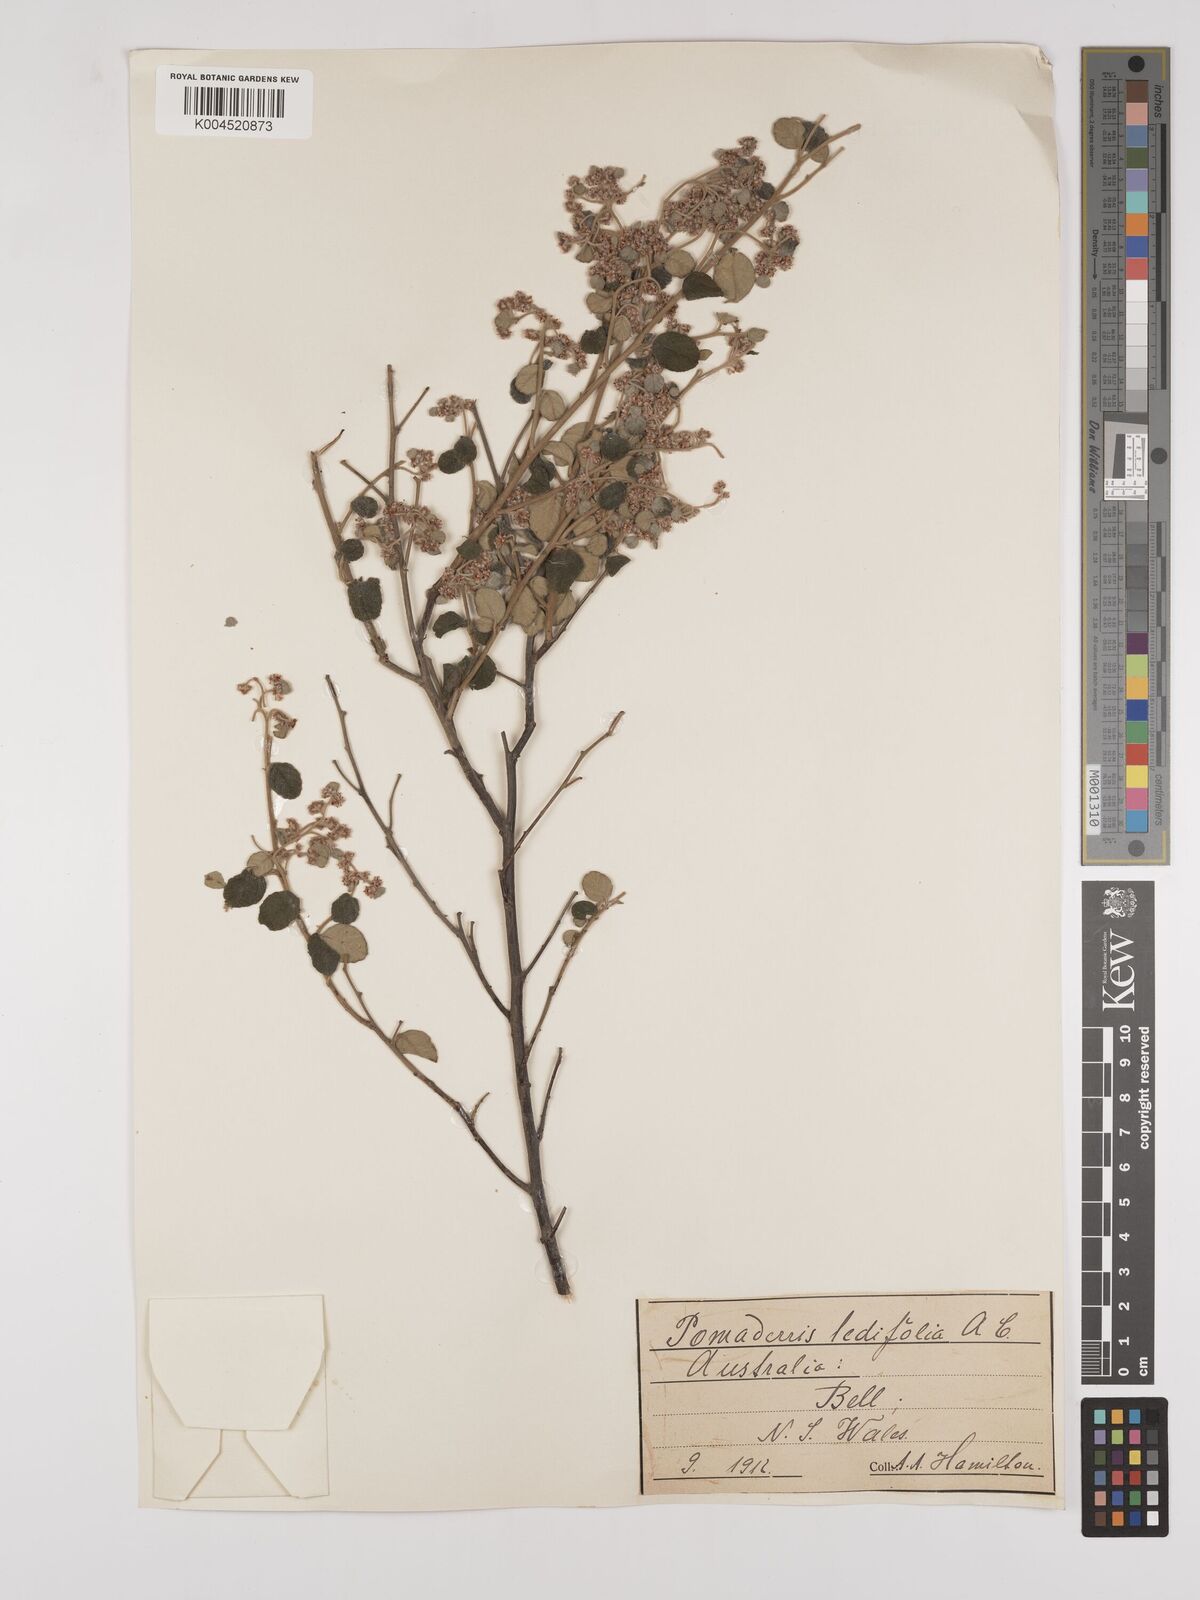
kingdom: Plantae
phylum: Tracheophyta
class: Magnoliopsida
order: Rosales
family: Rhamnaceae
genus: Pomaderris
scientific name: Pomaderris
